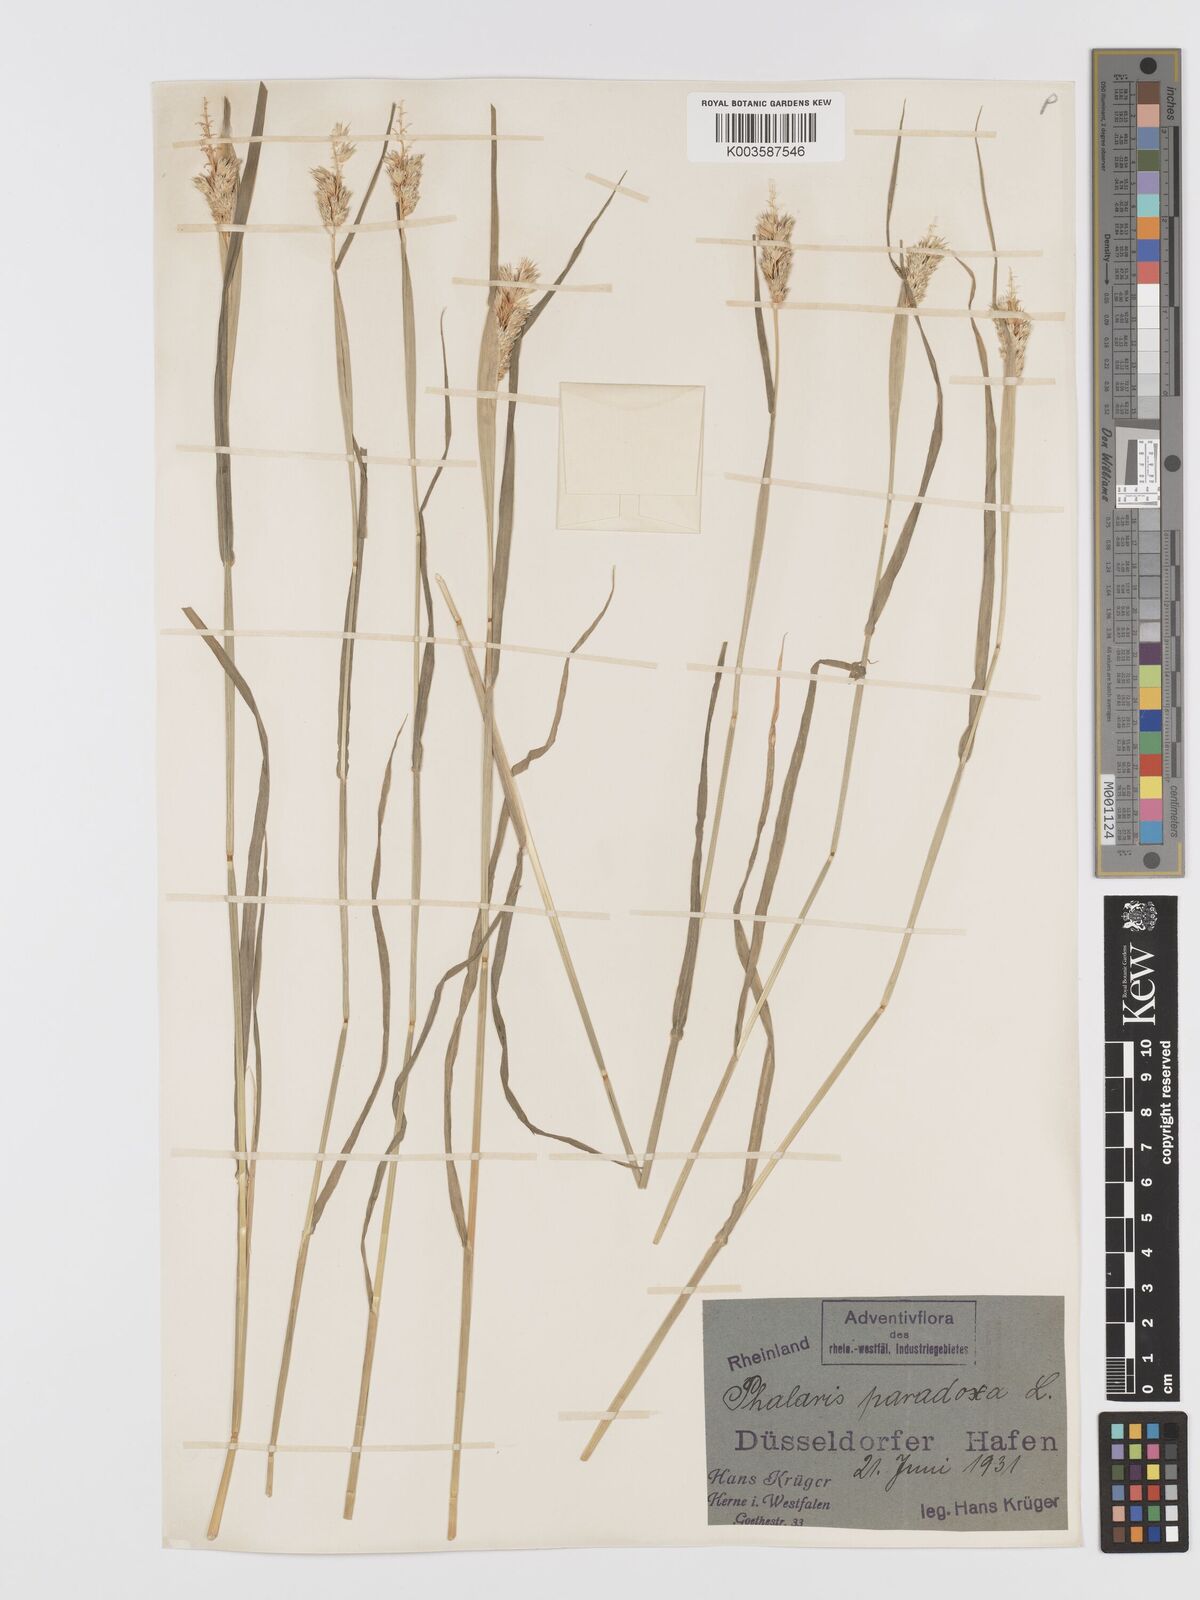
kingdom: Plantae
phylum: Tracheophyta
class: Liliopsida
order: Poales
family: Poaceae
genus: Phalaris
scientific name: Phalaris paradoxa
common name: Awned canary-grass
